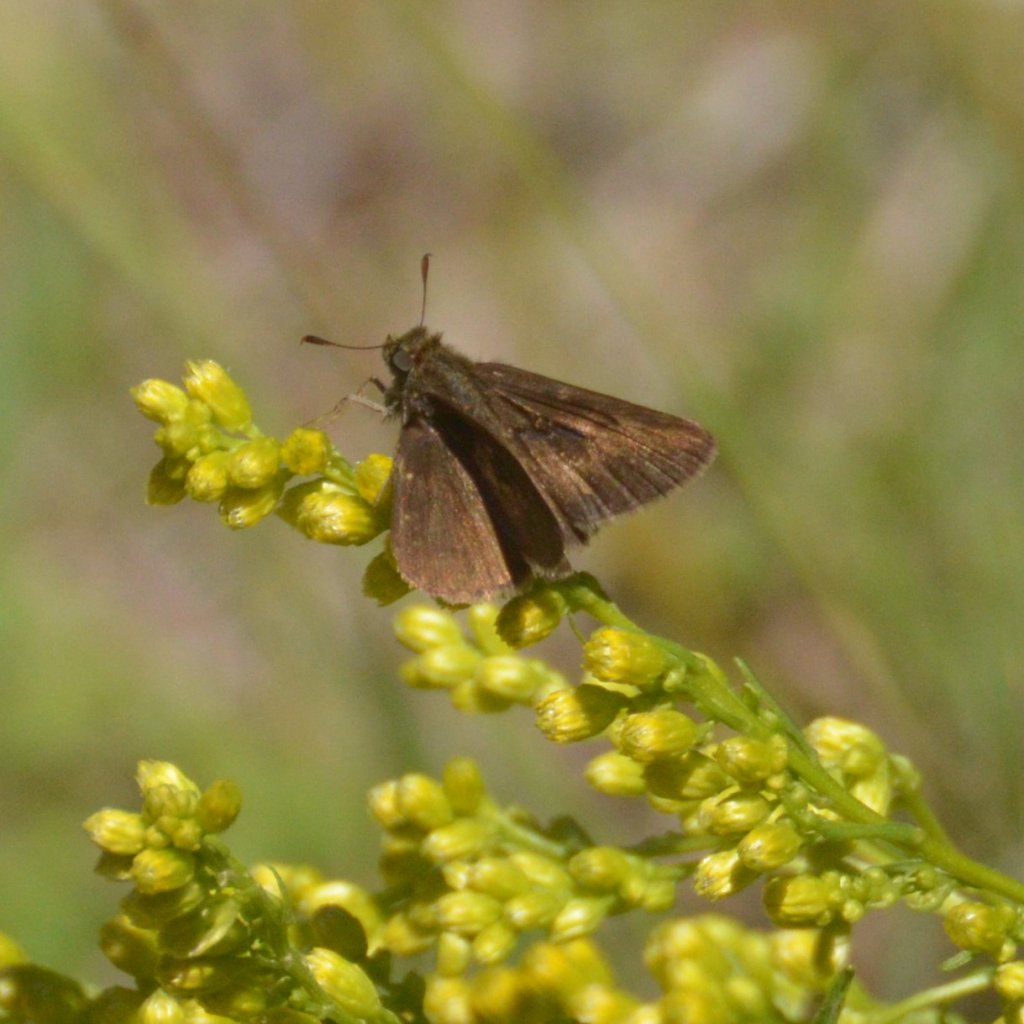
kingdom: Animalia
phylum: Arthropoda
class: Insecta
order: Lepidoptera
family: Hesperiidae
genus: Euphyes
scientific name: Euphyes vestris
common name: Dun Skipper
